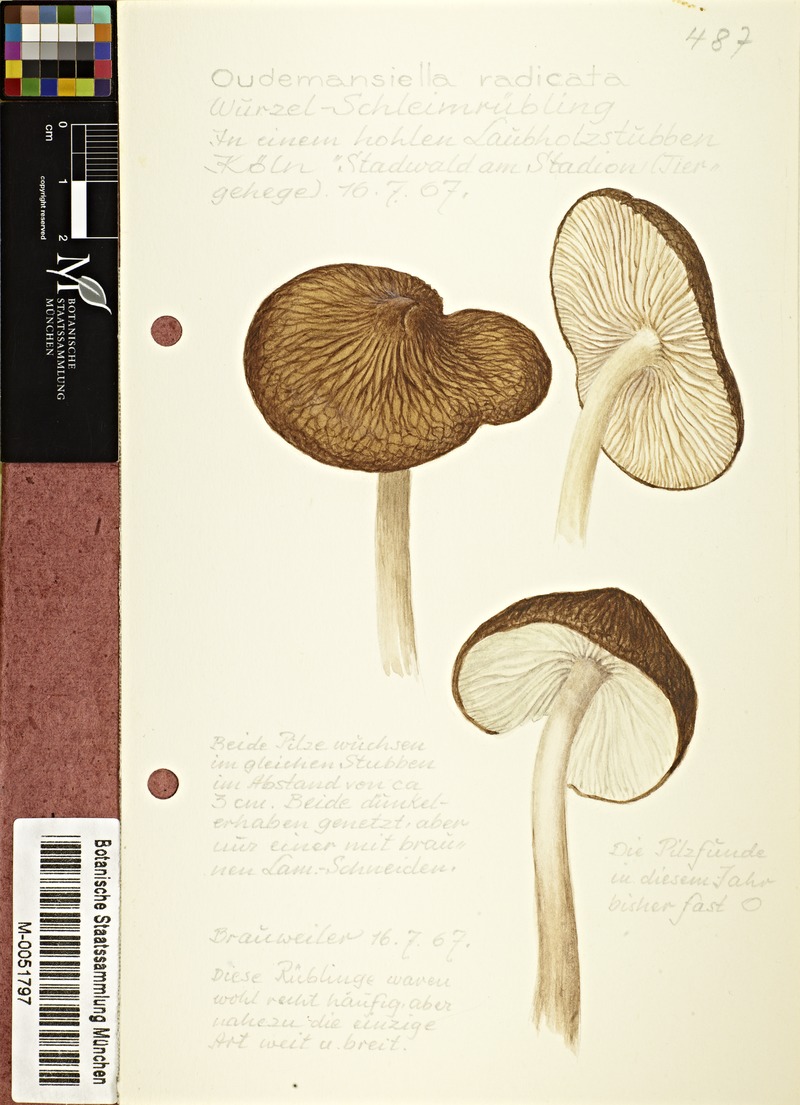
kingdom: Fungi
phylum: Basidiomycota
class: Agaricomycetes
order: Agaricales
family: Physalacriaceae
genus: Hymenopellis
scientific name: Hymenopellis radicata
